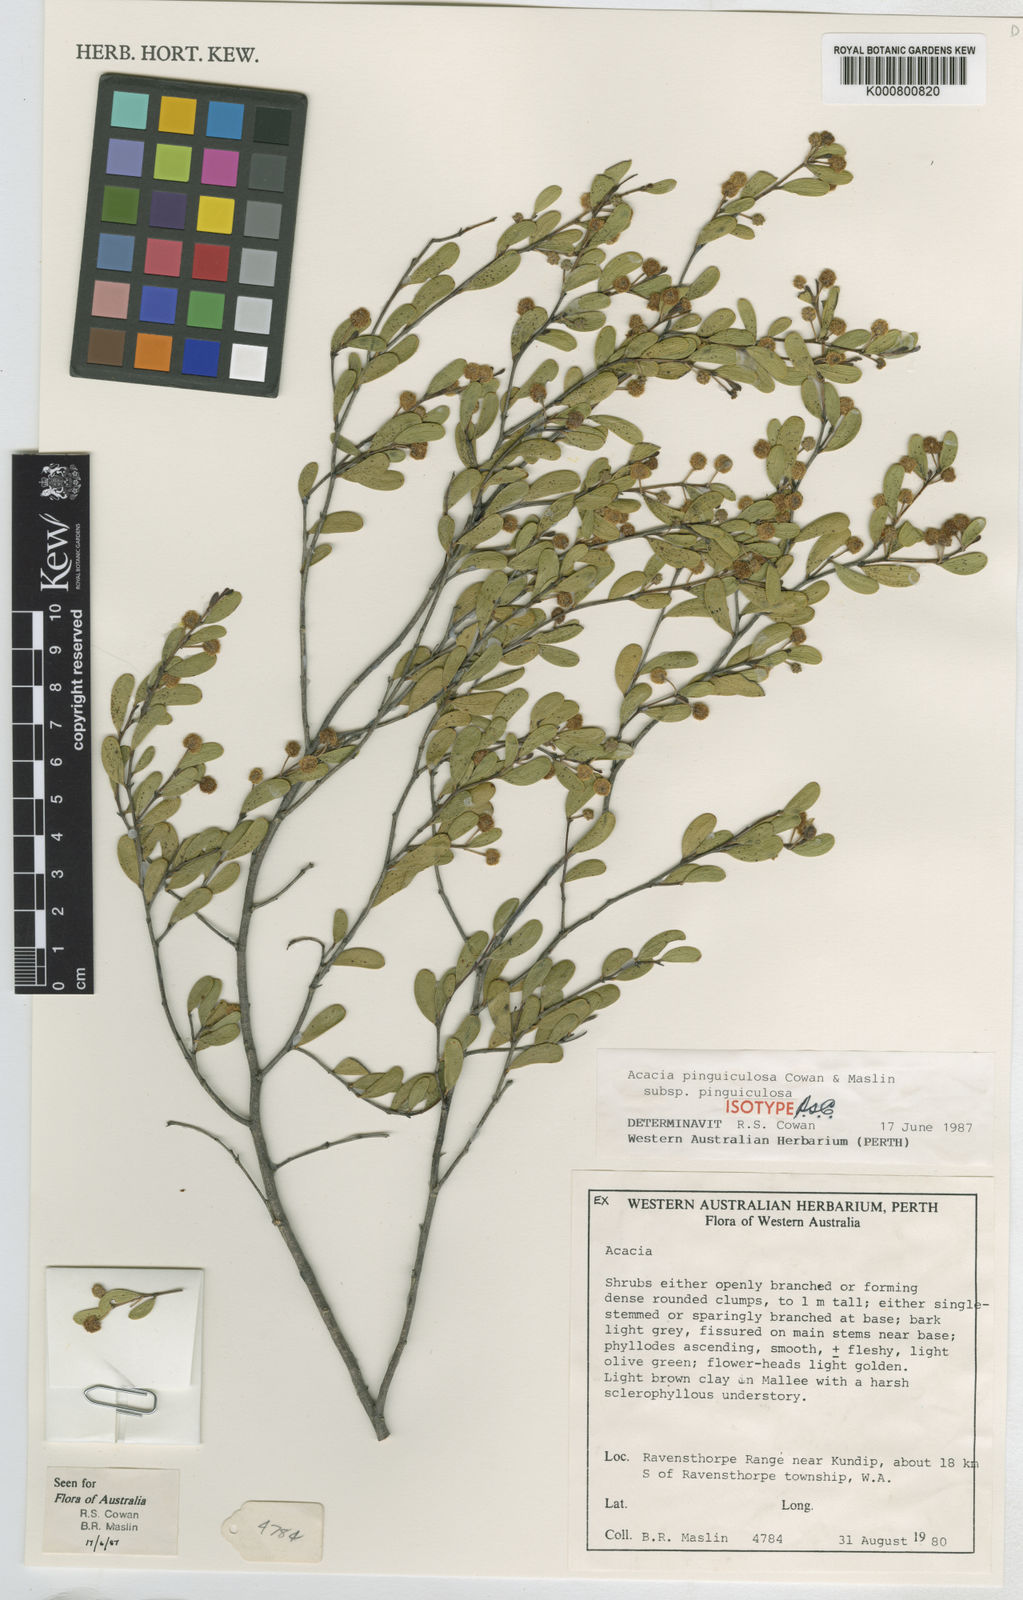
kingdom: Plantae
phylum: Tracheophyta
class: Magnoliopsida
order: Fabales
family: Fabaceae
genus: Acacia
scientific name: Acacia pinguiculosa
